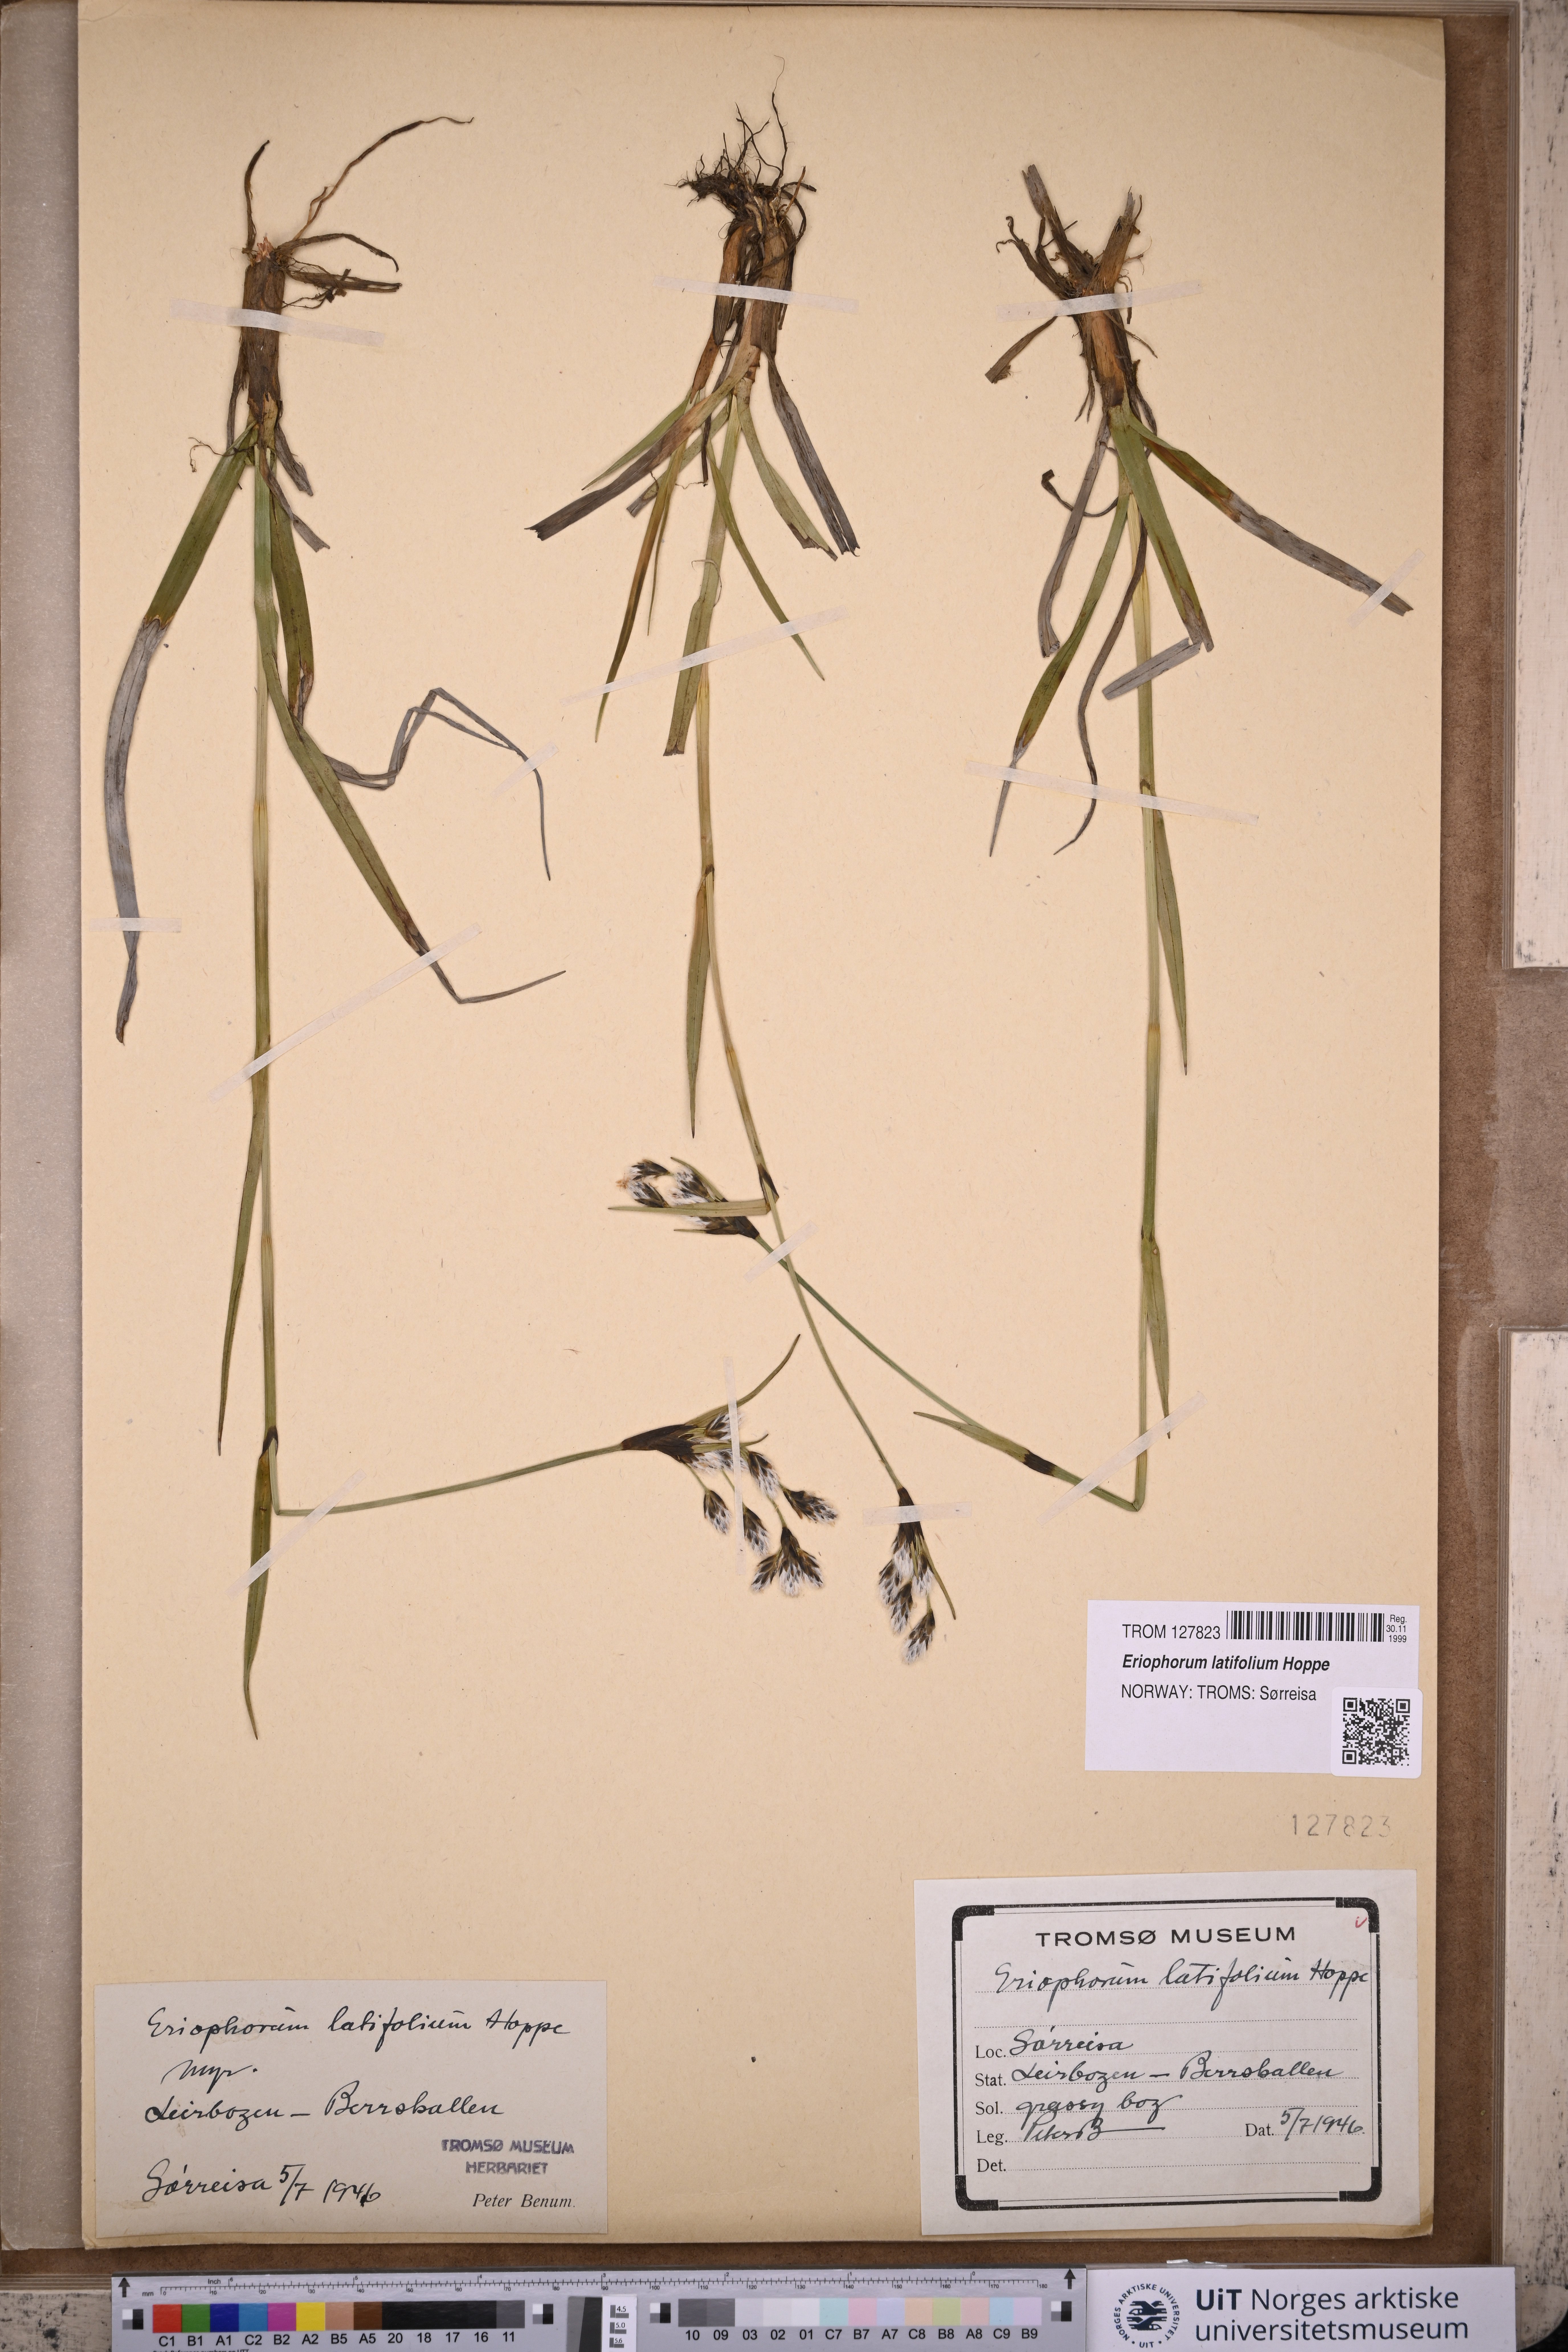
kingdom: Plantae
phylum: Tracheophyta
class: Liliopsida
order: Poales
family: Cyperaceae
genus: Eriophorum
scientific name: Eriophorum latifolium
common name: Broad-leaved cottongrass
